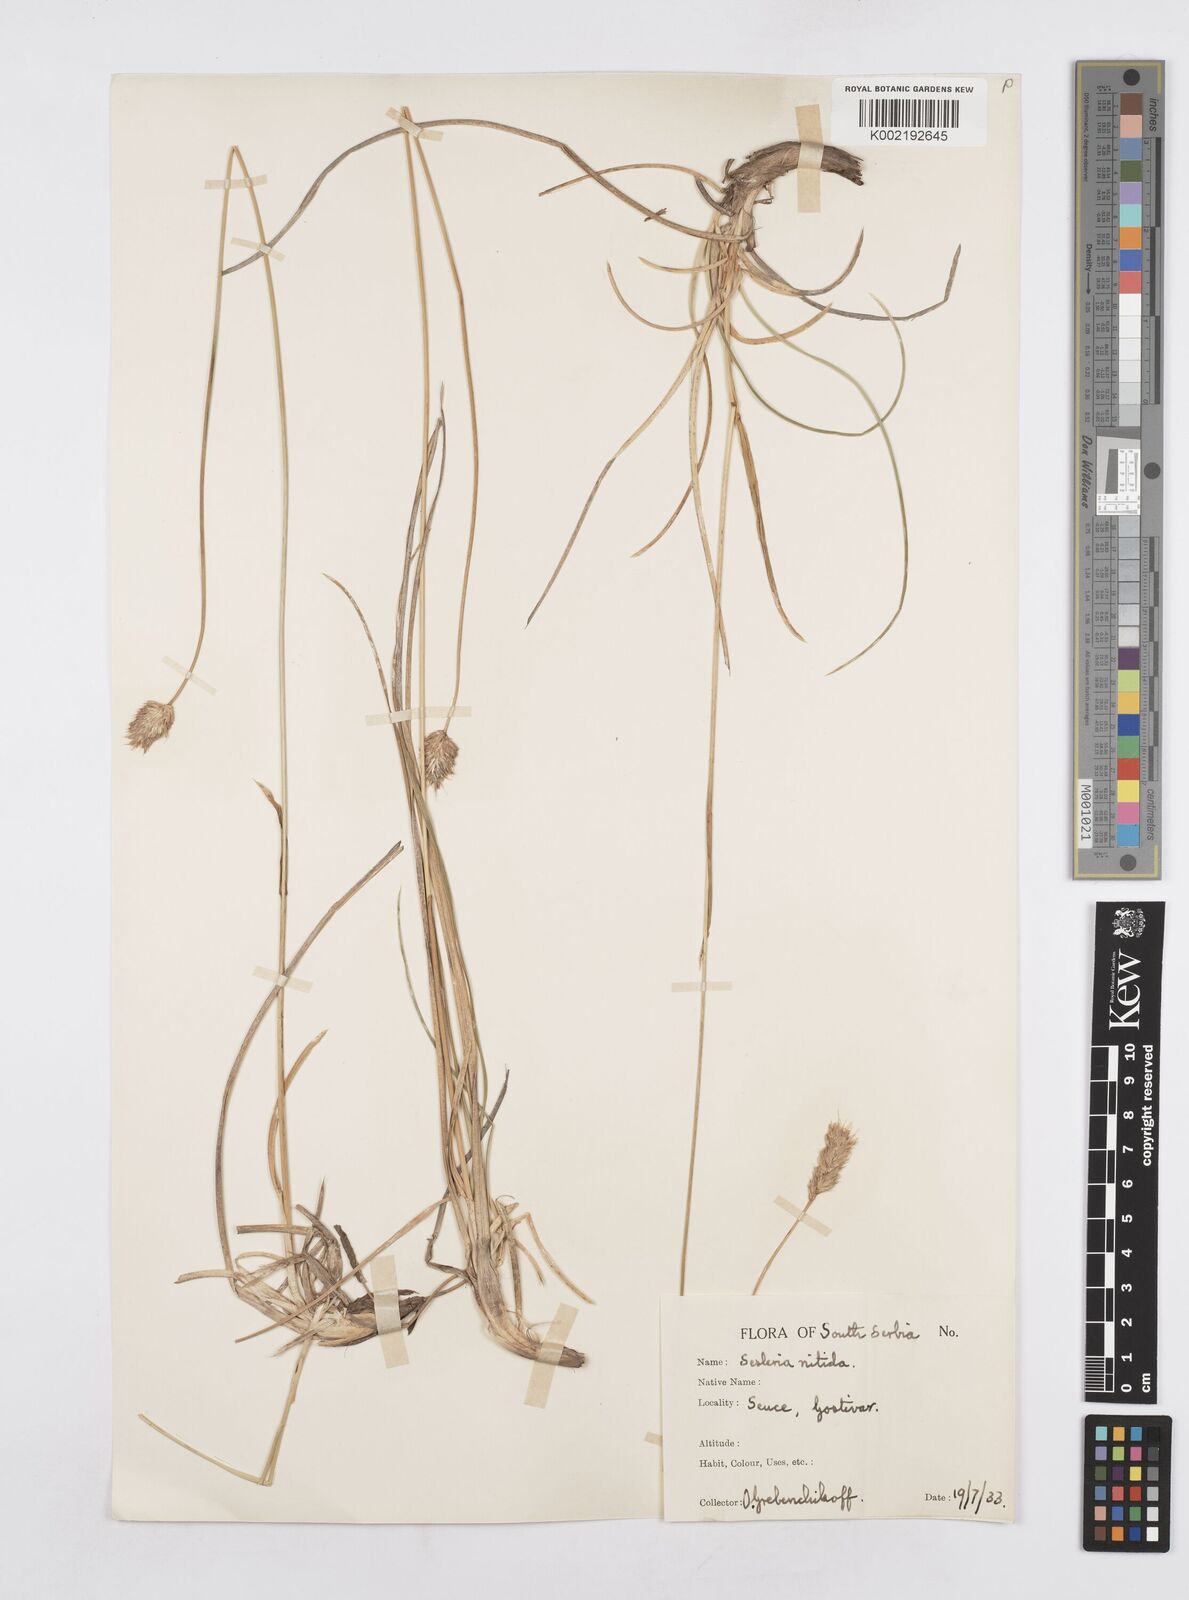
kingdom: Plantae
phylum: Tracheophyta
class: Liliopsida
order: Poales
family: Poaceae
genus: Sesleria
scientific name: Sesleria robusta
